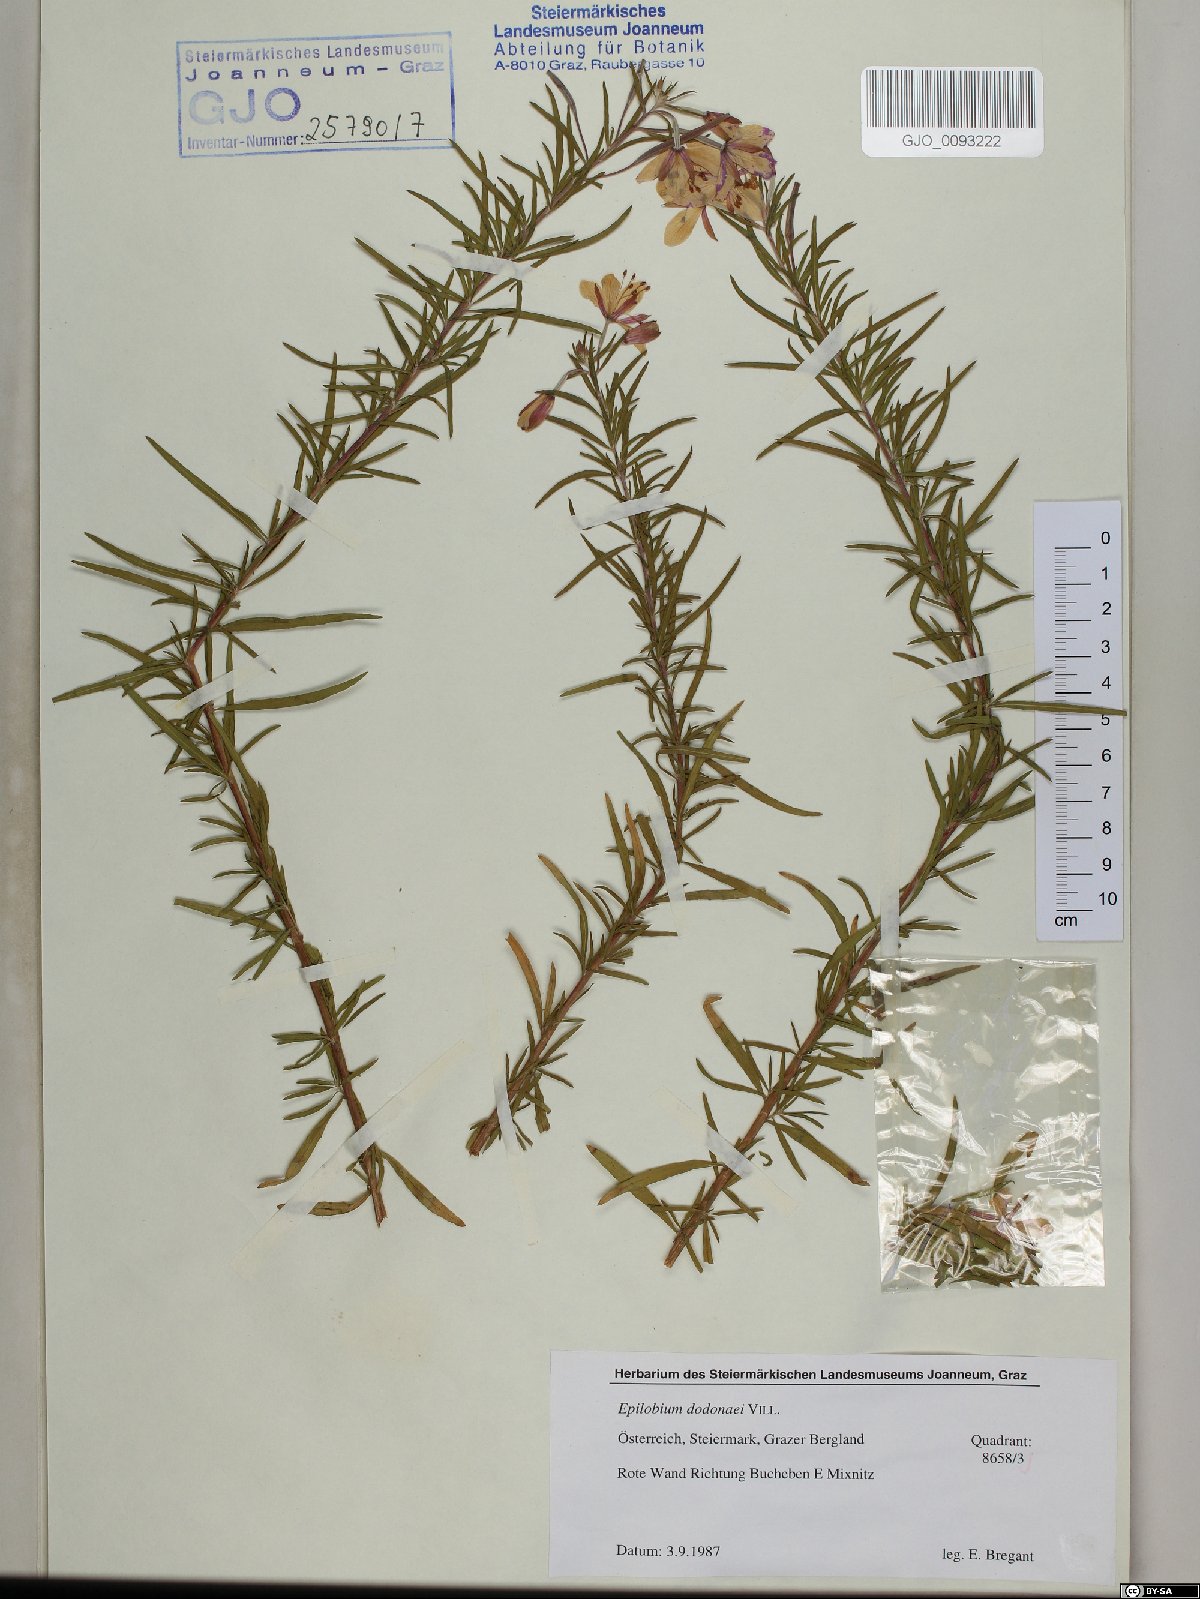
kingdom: Plantae
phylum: Tracheophyta
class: Magnoliopsida
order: Myrtales
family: Onagraceae
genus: Chamaenerion
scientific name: Chamaenerion dodonaei
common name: Rosemary-leaved willowherb
